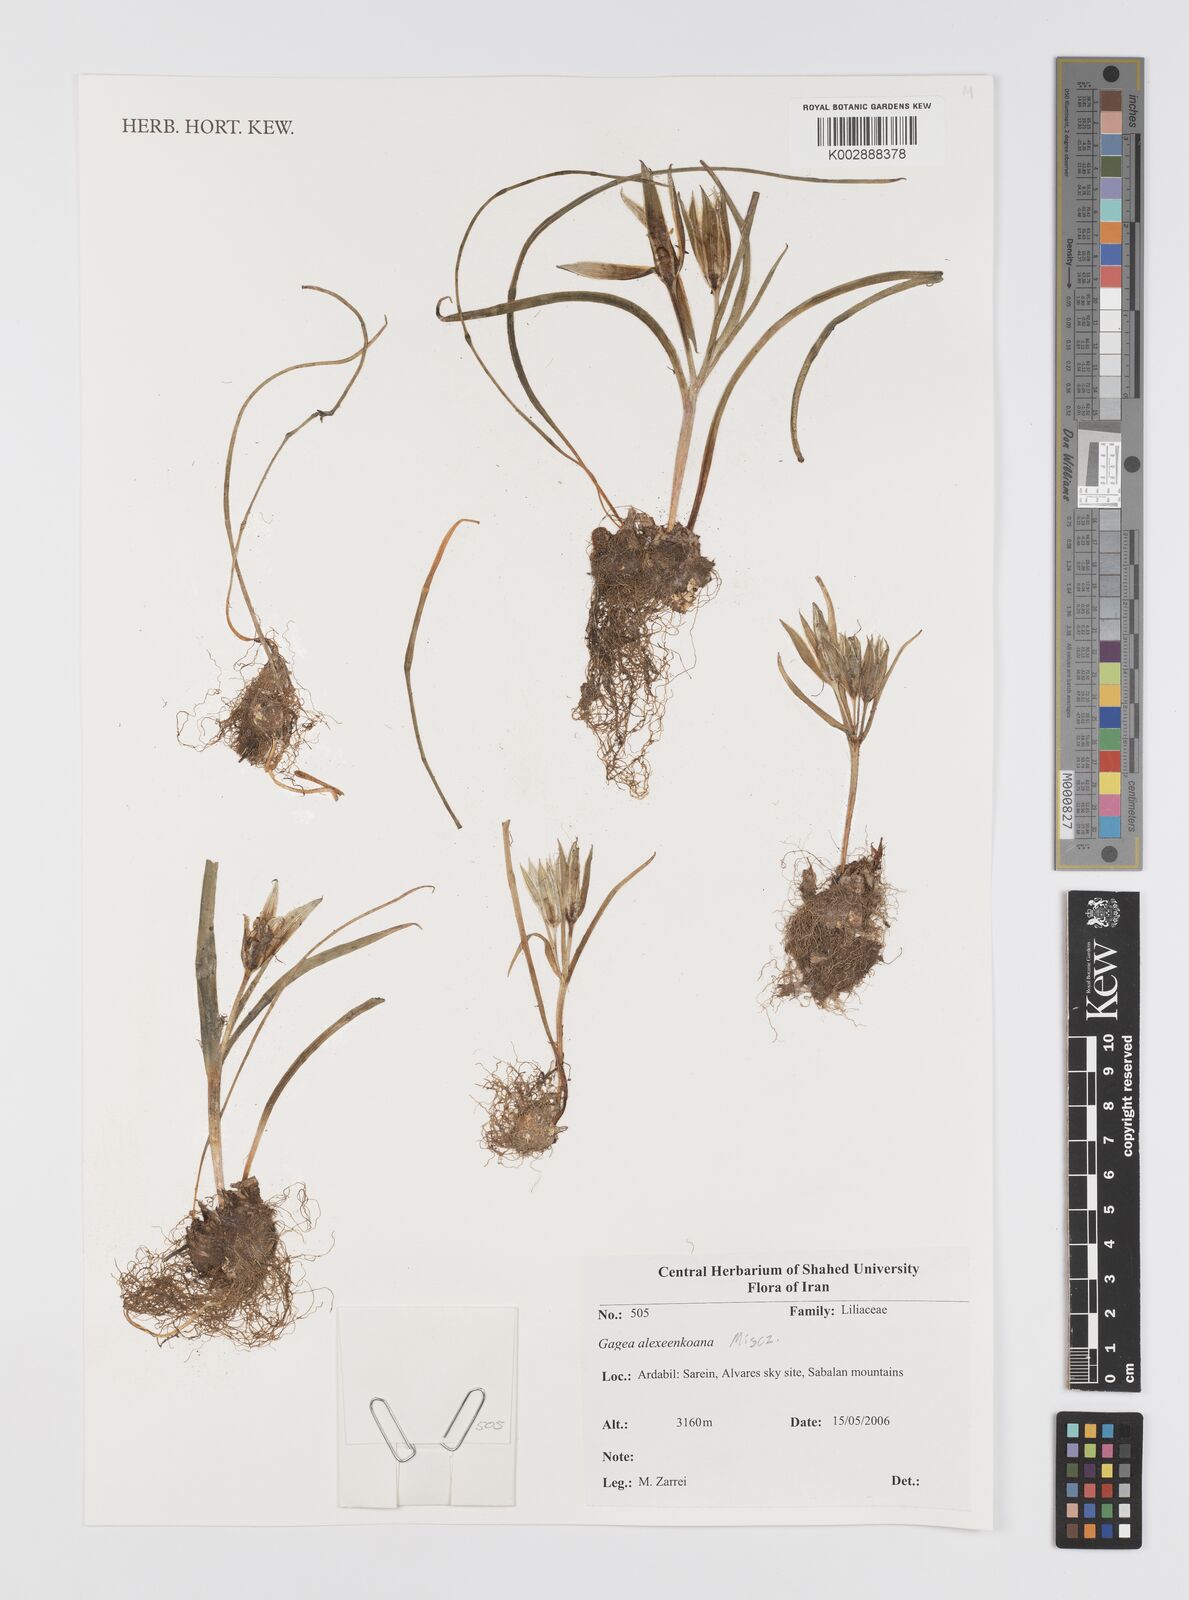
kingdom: Plantae
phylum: Tracheophyta
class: Liliopsida
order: Liliales
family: Liliaceae
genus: Gagea
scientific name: Gagea alexeenkoana
